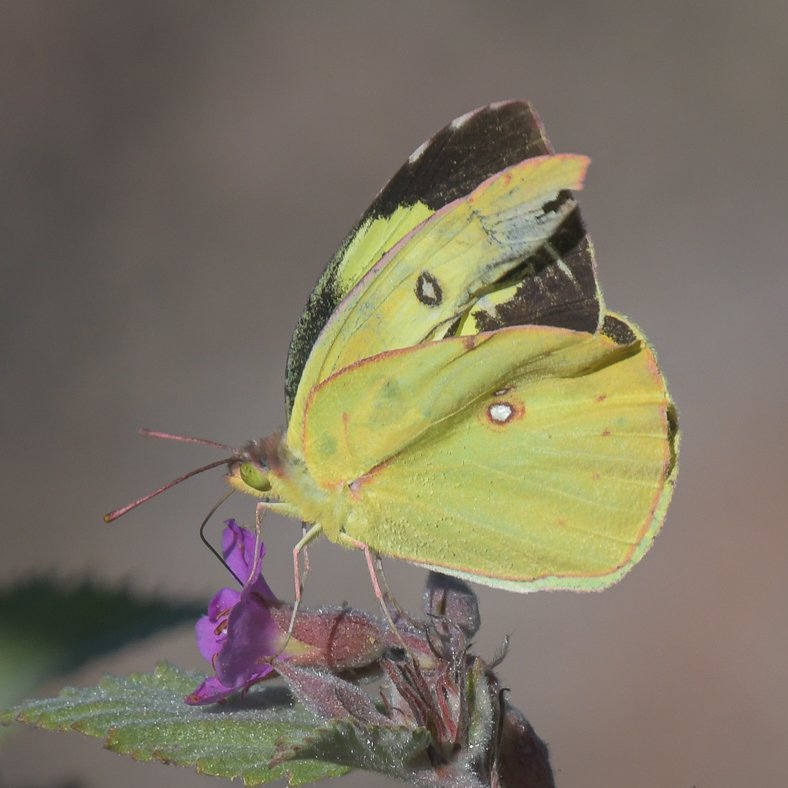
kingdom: Animalia
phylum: Arthropoda
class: Insecta
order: Lepidoptera
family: Pieridae
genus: Zerene
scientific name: Zerene cesonia
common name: Southern Dogface
